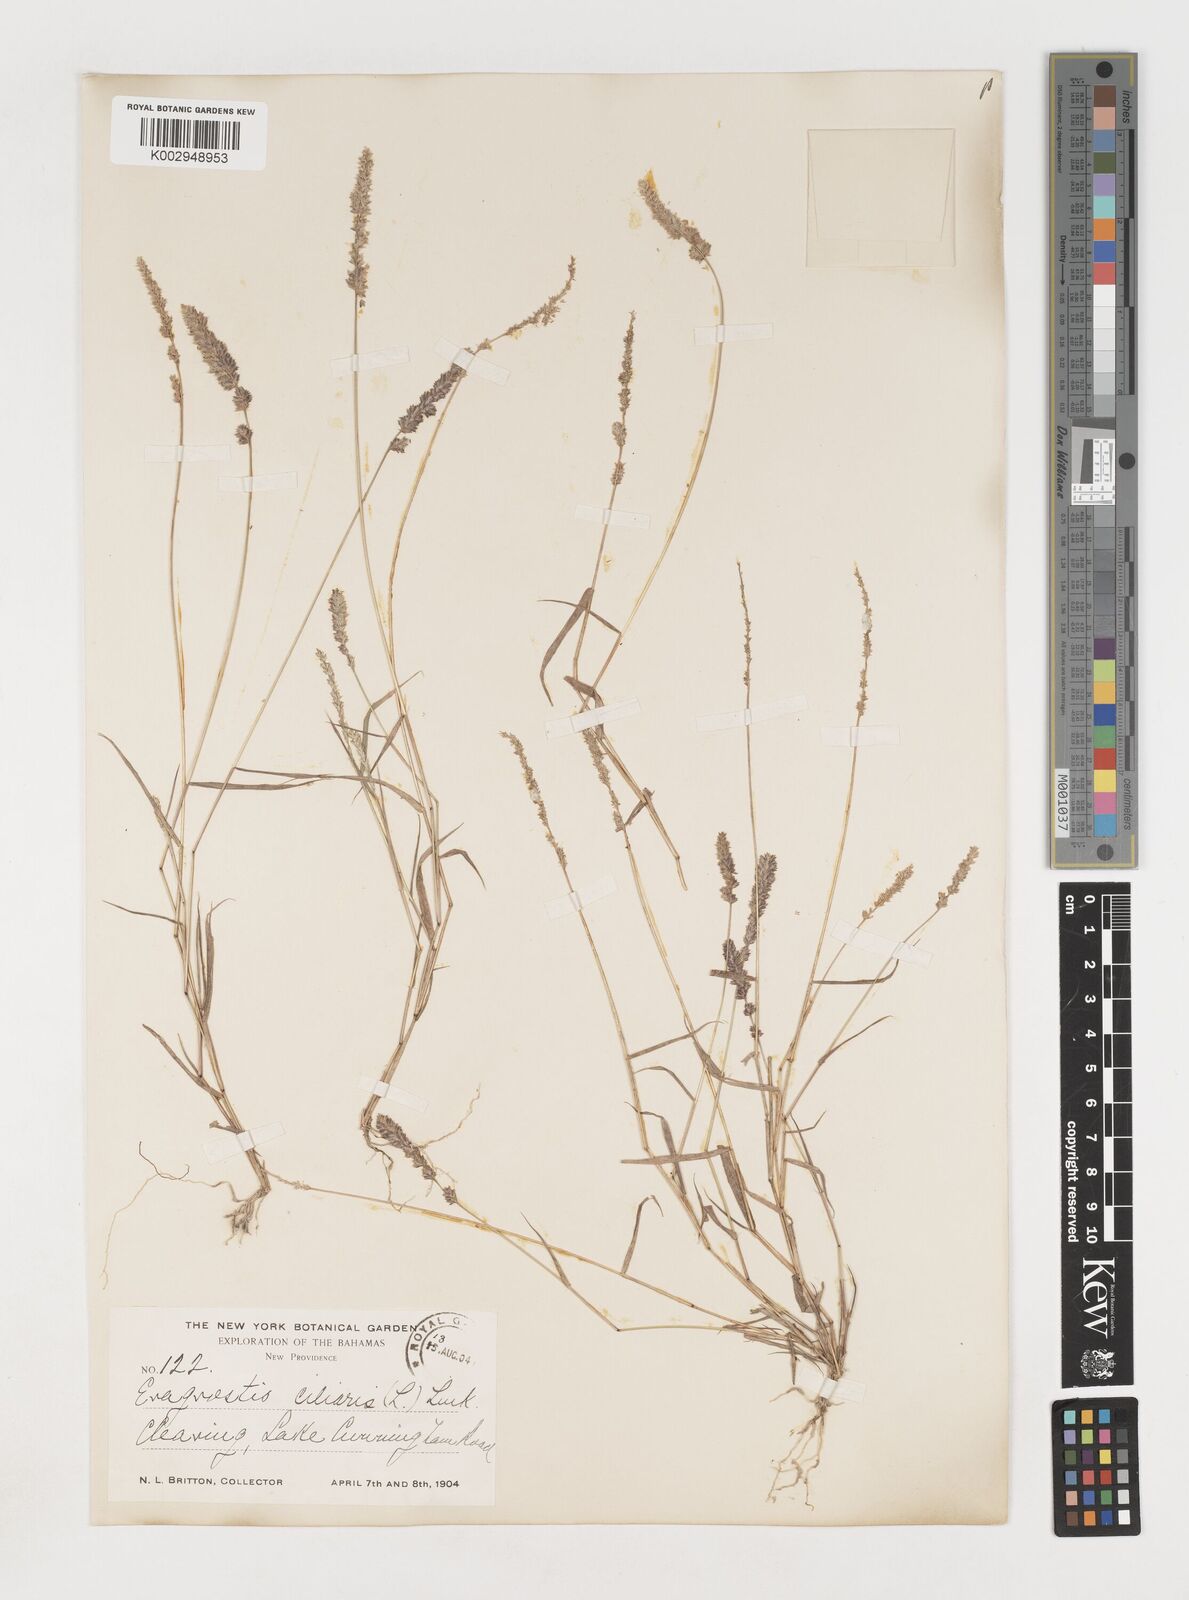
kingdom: Plantae
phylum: Tracheophyta
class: Liliopsida
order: Poales
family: Poaceae
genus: Eragrostis
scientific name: Eragrostis ciliaris
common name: Gophertail lovegrass
